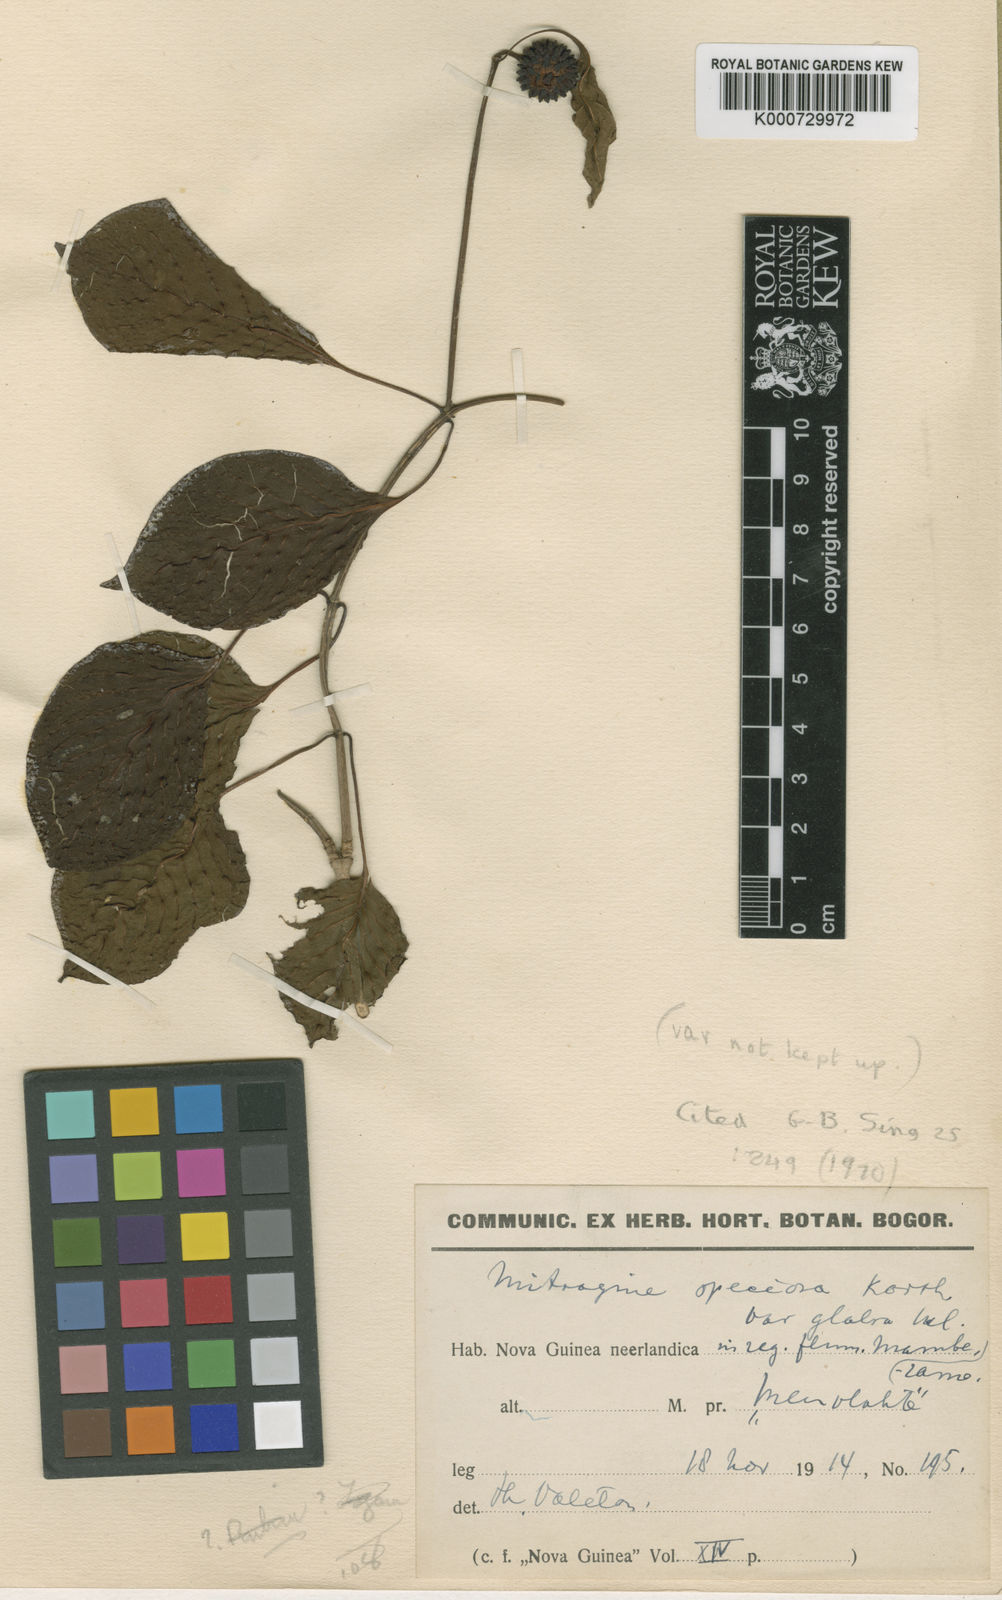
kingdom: Plantae
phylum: Tracheophyta
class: Magnoliopsida
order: Gentianales
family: Rubiaceae
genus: Mitragyna
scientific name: Mitragyna
